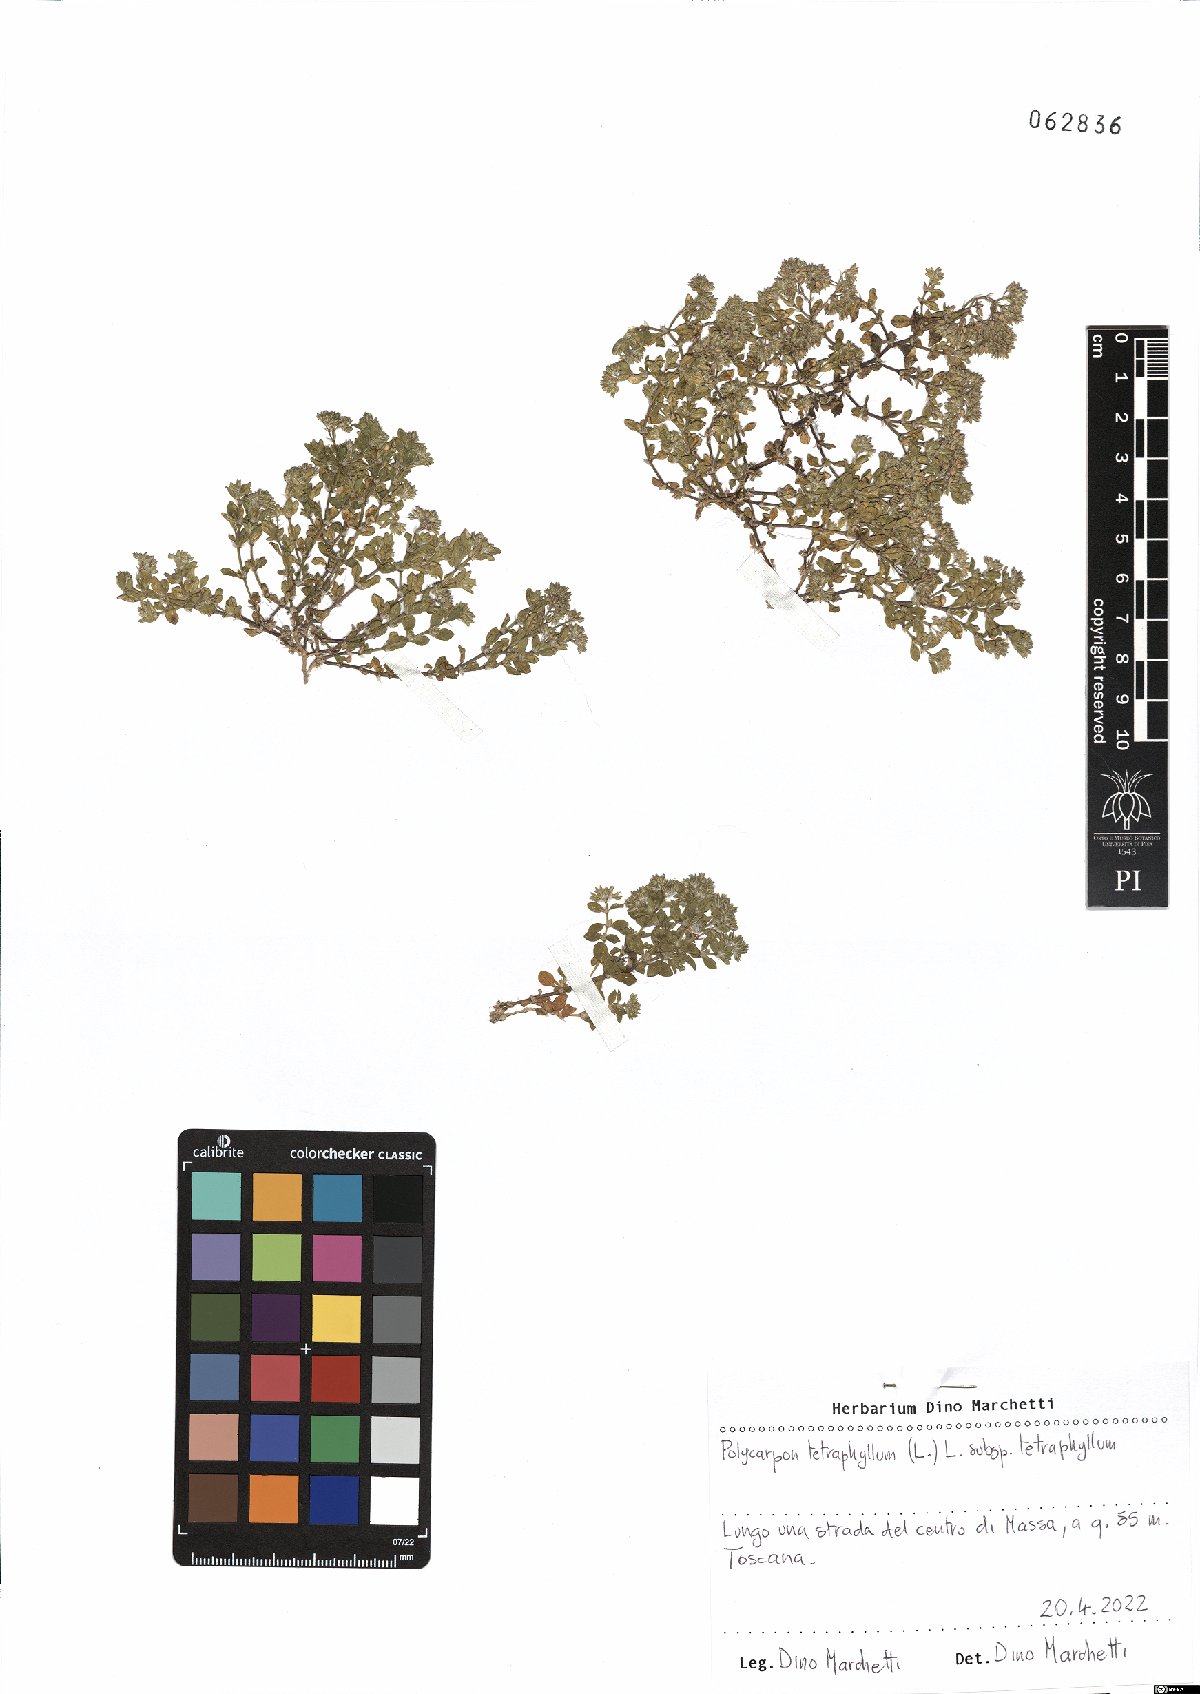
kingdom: Plantae
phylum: Tracheophyta
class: Magnoliopsida
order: Caryophyllales
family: Caryophyllaceae
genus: Polycarpon
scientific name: Polycarpon tetraphyllum
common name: Four-leaved all-seed
